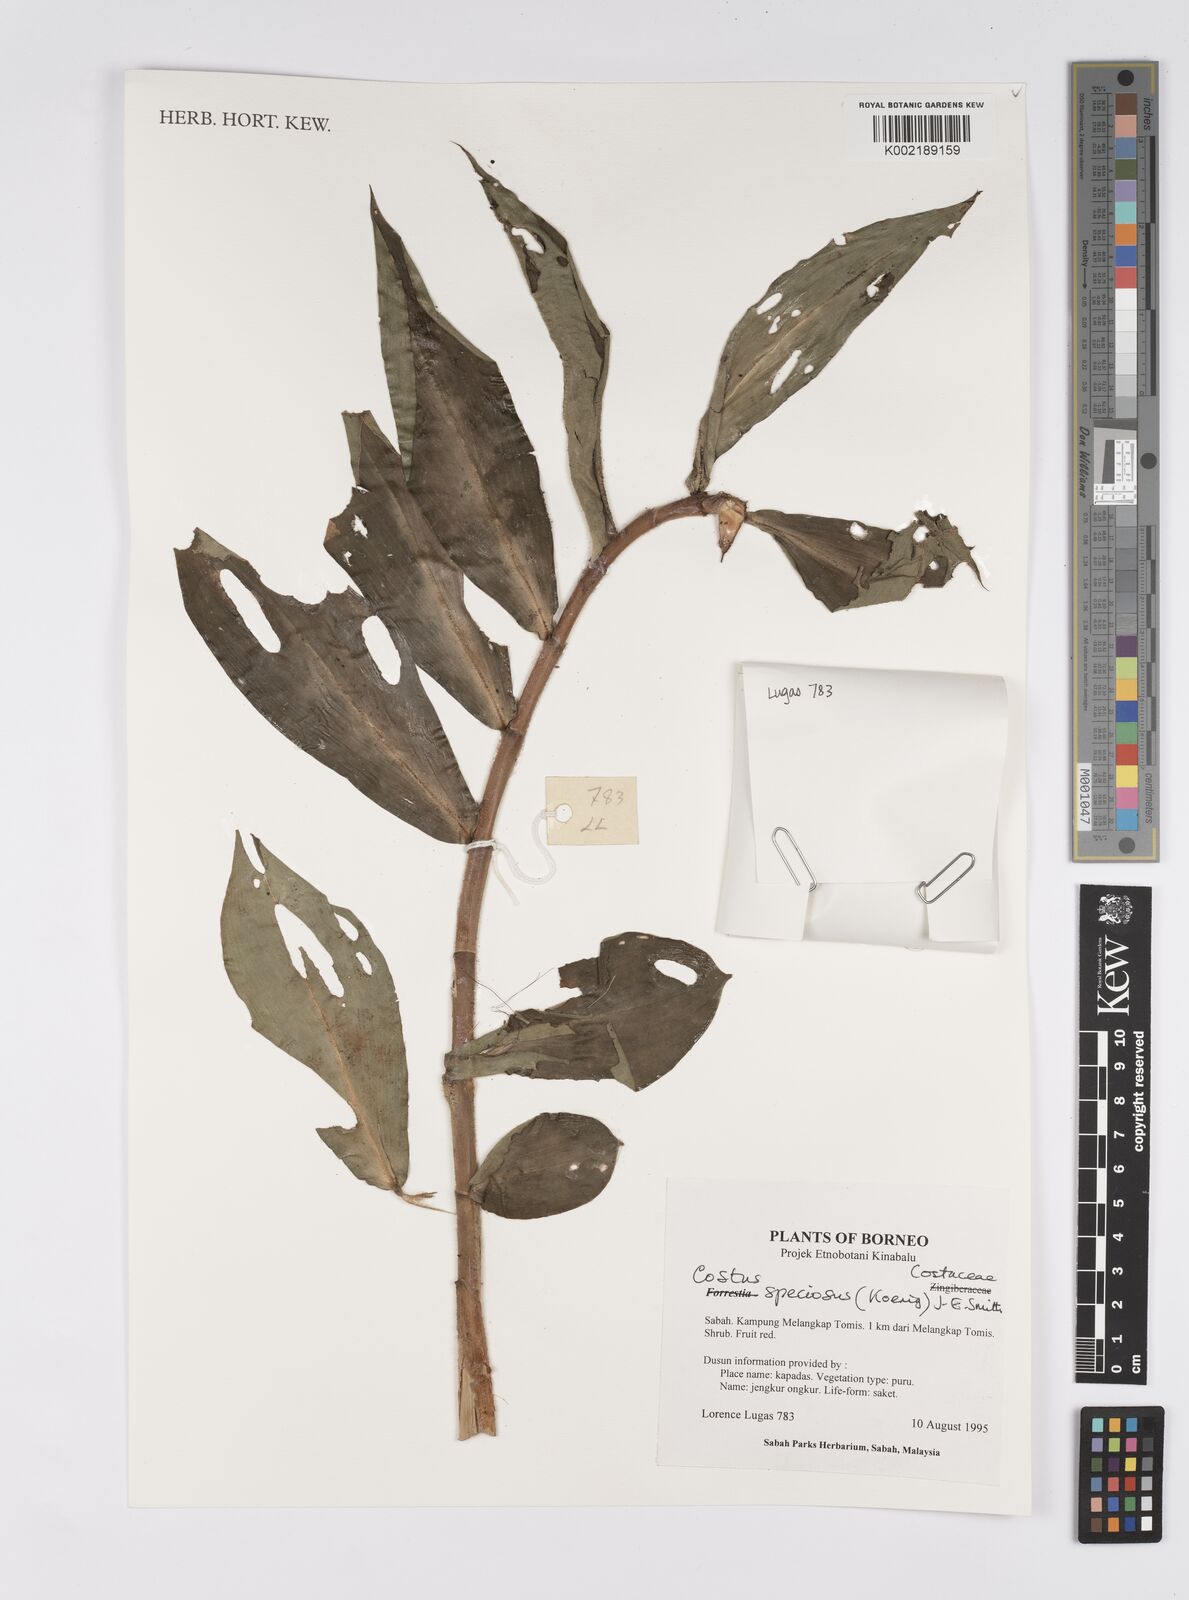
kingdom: Plantae
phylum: Tracheophyta
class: Liliopsida
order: Zingiberales
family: Costaceae
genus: Hellenia
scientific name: Hellenia speciosa
